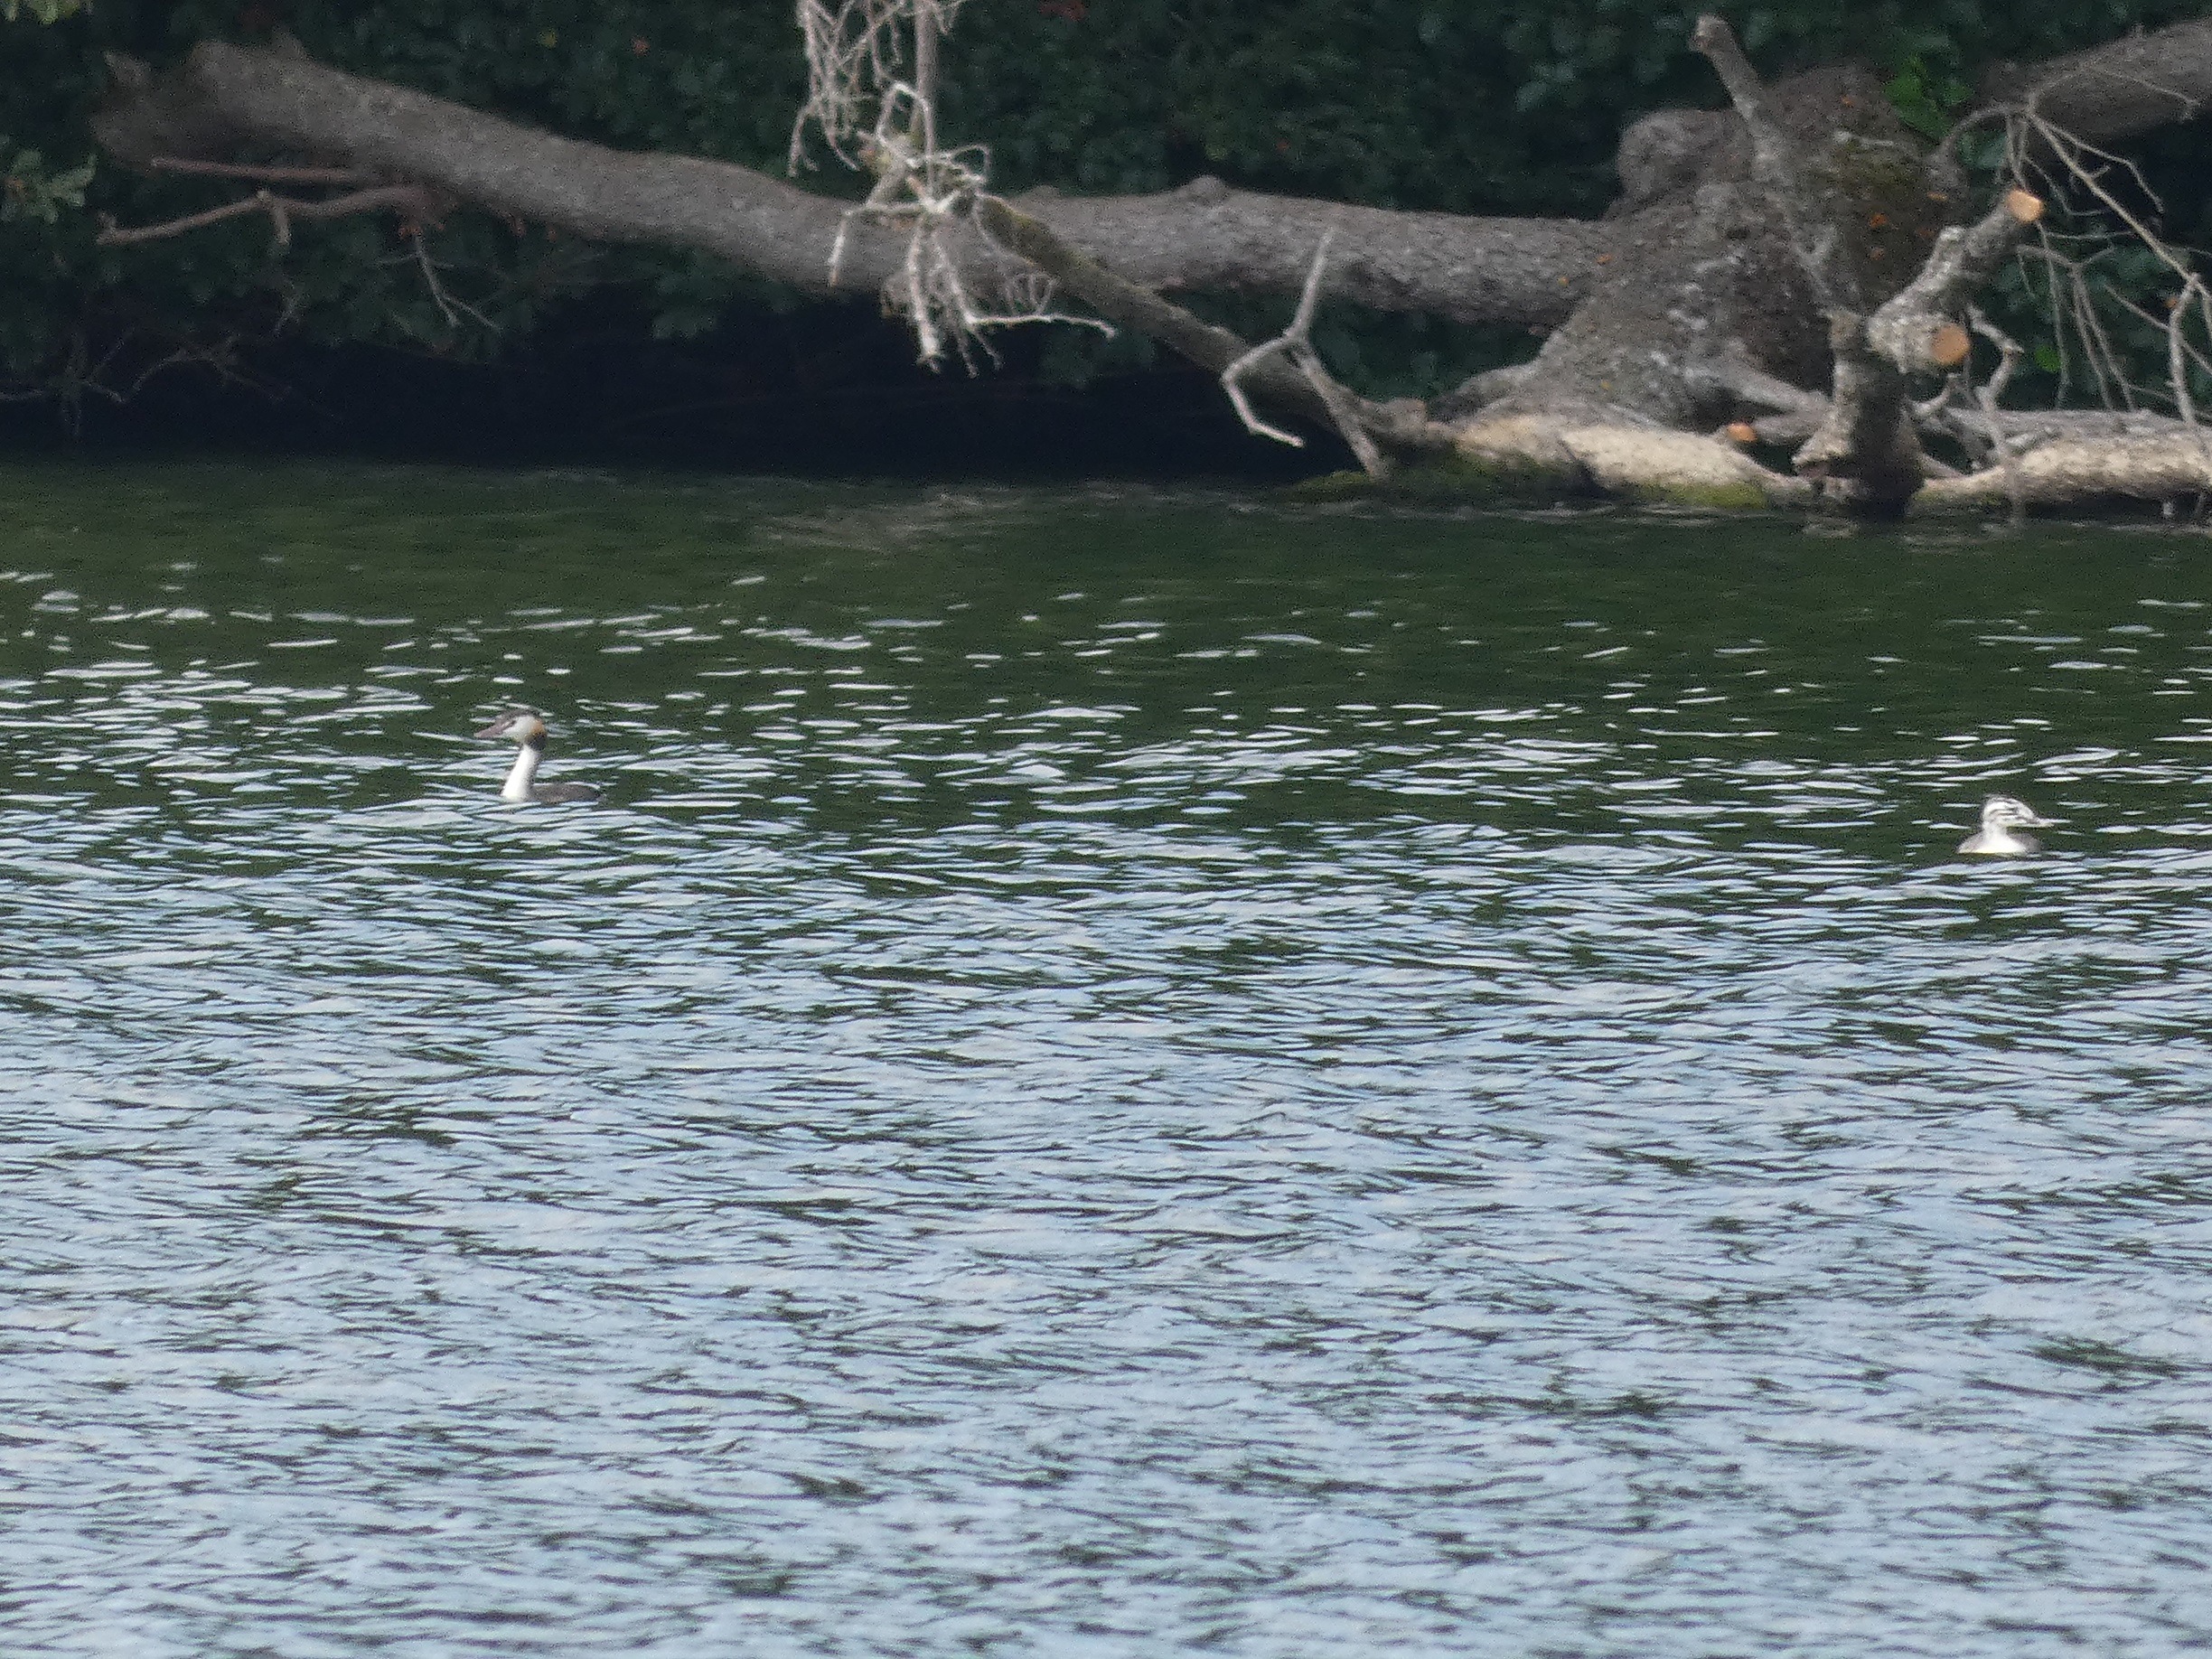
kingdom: Animalia
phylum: Chordata
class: Aves
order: Podicipediformes
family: Podicipedidae
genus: Podiceps
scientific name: Podiceps cristatus
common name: Toppet lappedykker
